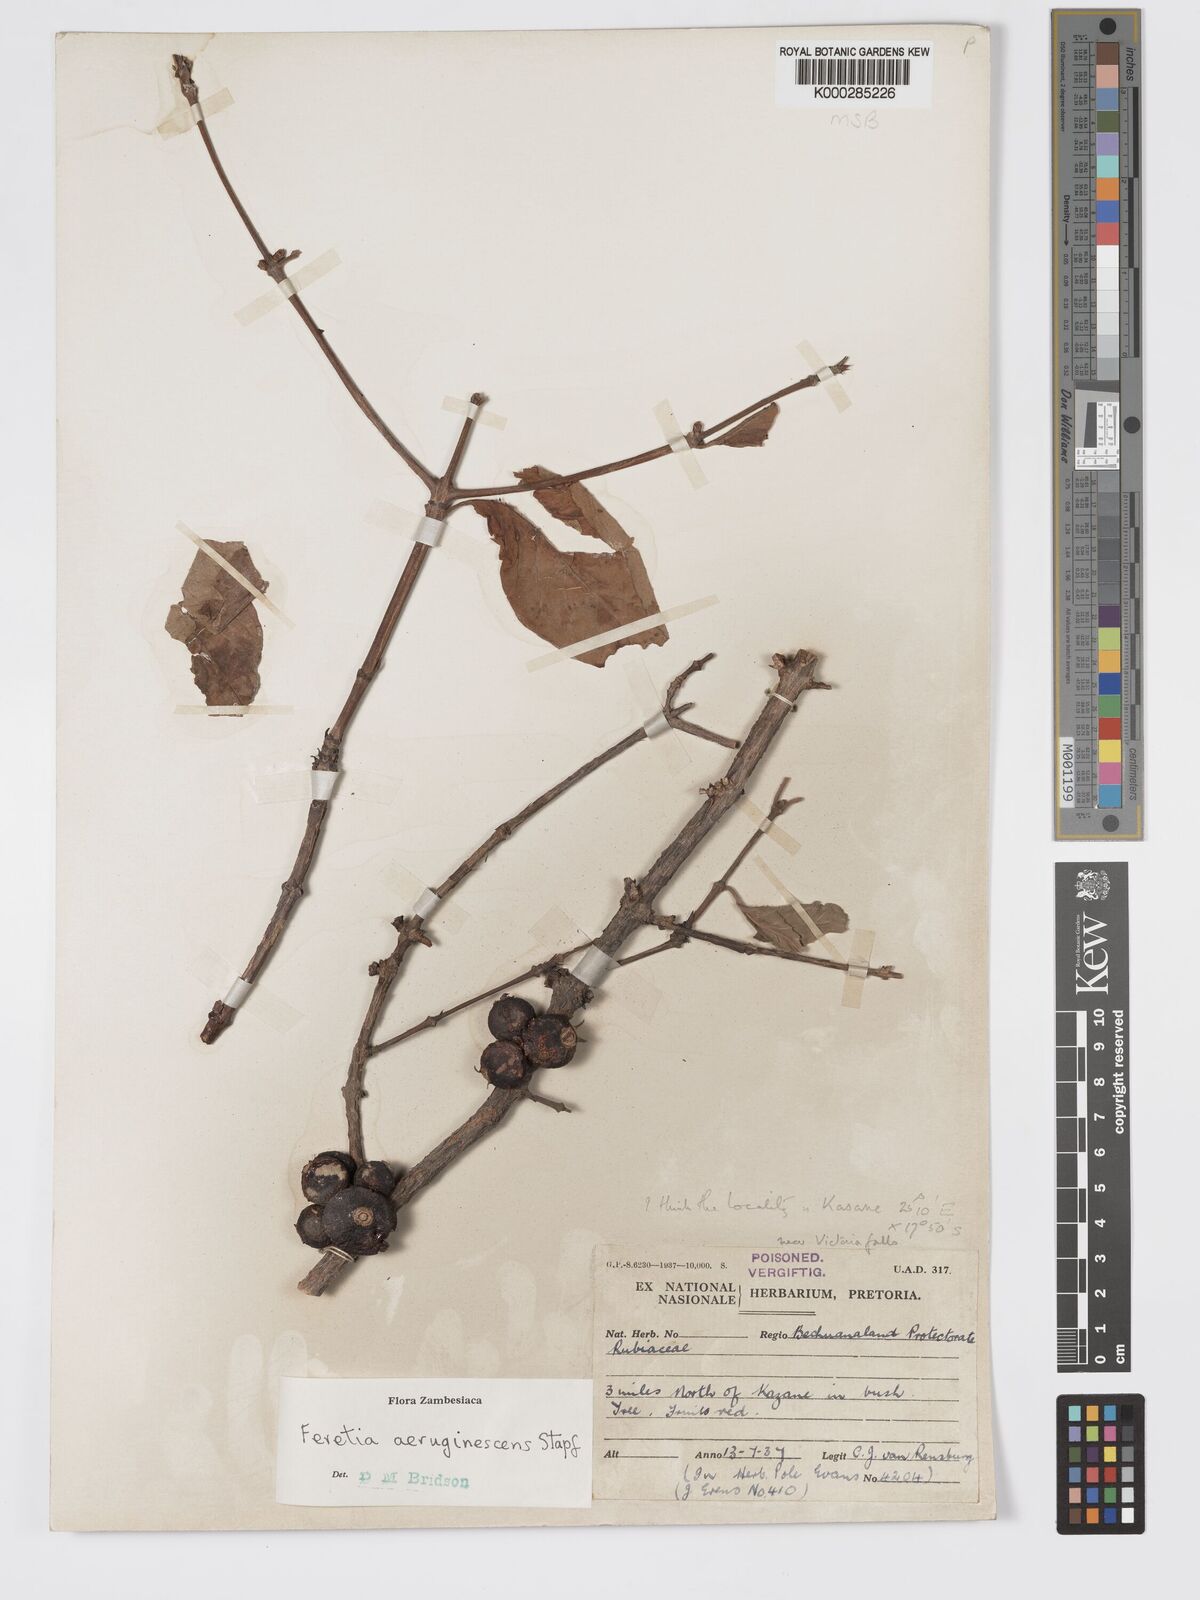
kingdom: Plantae
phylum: Tracheophyta
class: Magnoliopsida
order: Gentianales
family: Rubiaceae
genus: Feretia
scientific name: Feretia aeruginescens
